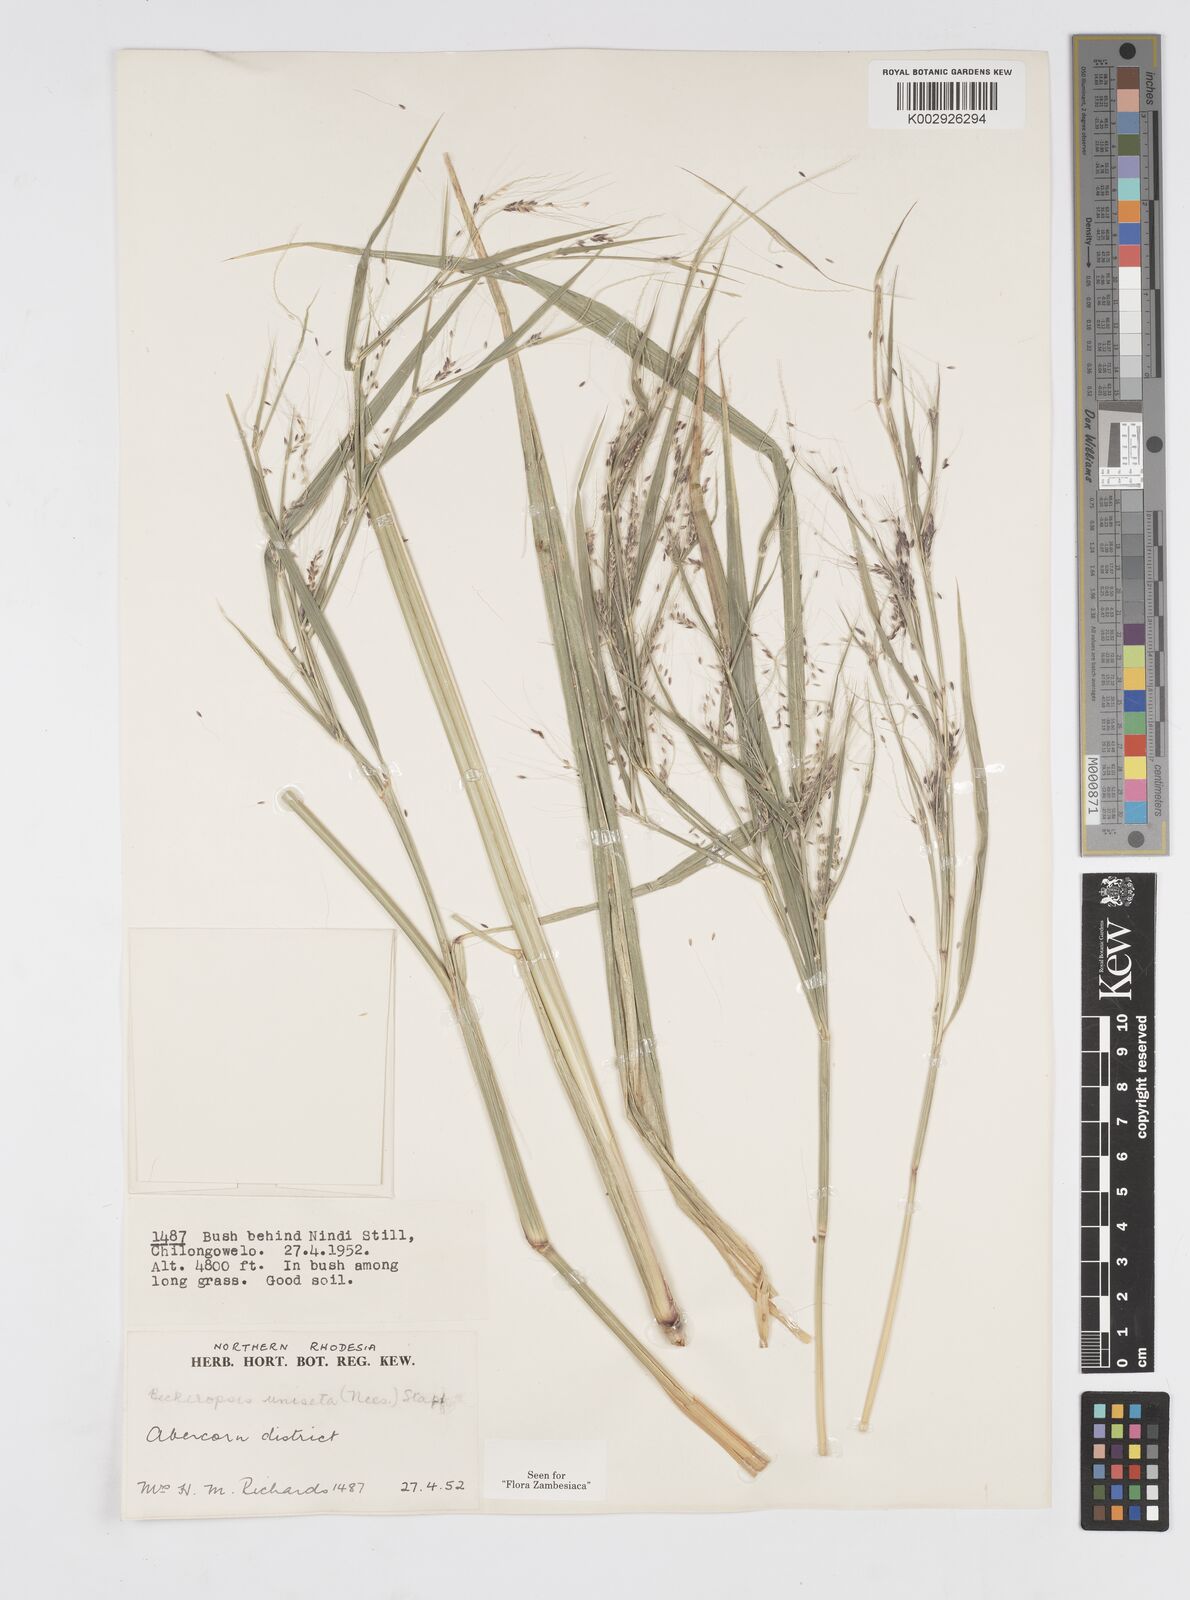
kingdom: Plantae
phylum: Tracheophyta
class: Liliopsida
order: Poales
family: Poaceae
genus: Cenchrus
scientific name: Cenchrus unisetus
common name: Natal grass
